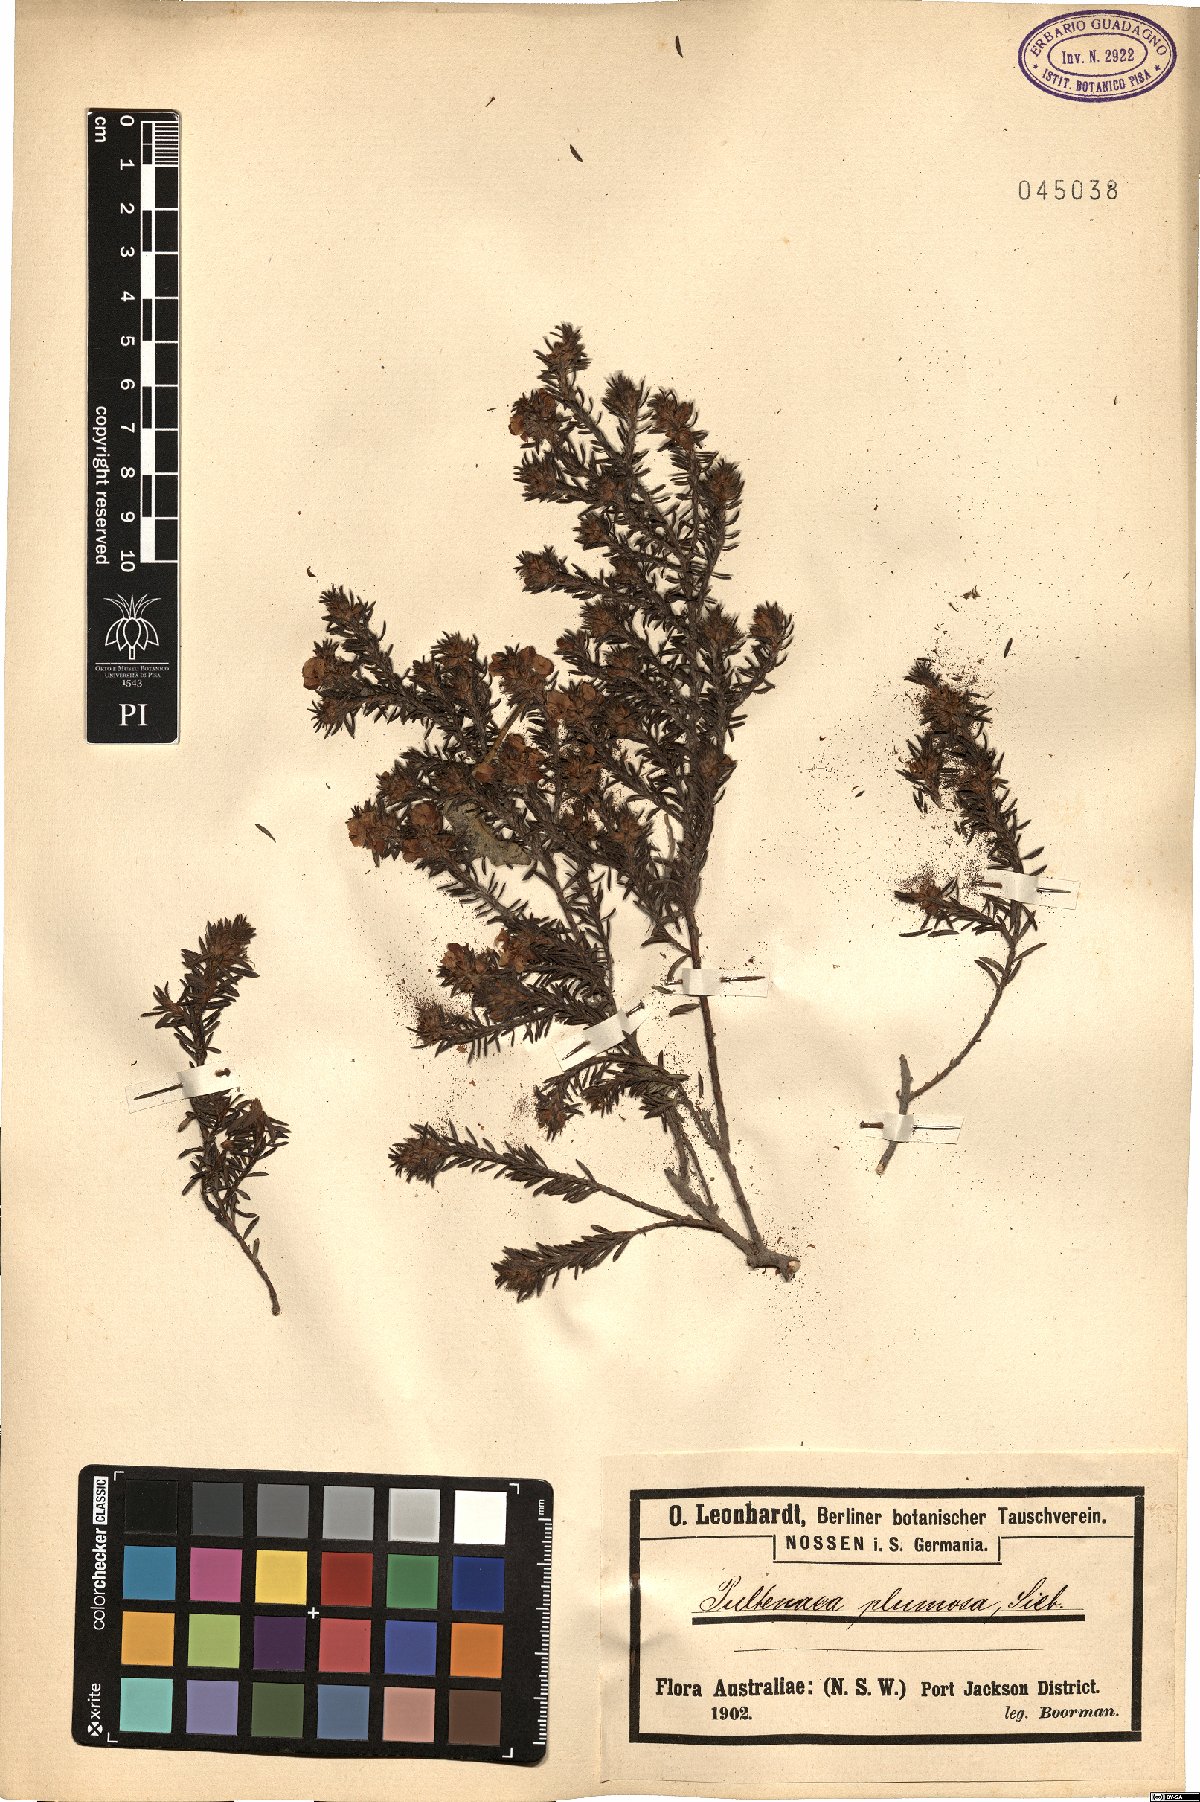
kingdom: Plantae
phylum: Tracheophyta
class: Magnoliopsida
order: Fabales
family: Fabaceae
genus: Pultenaea
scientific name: Pultenaea canescens
